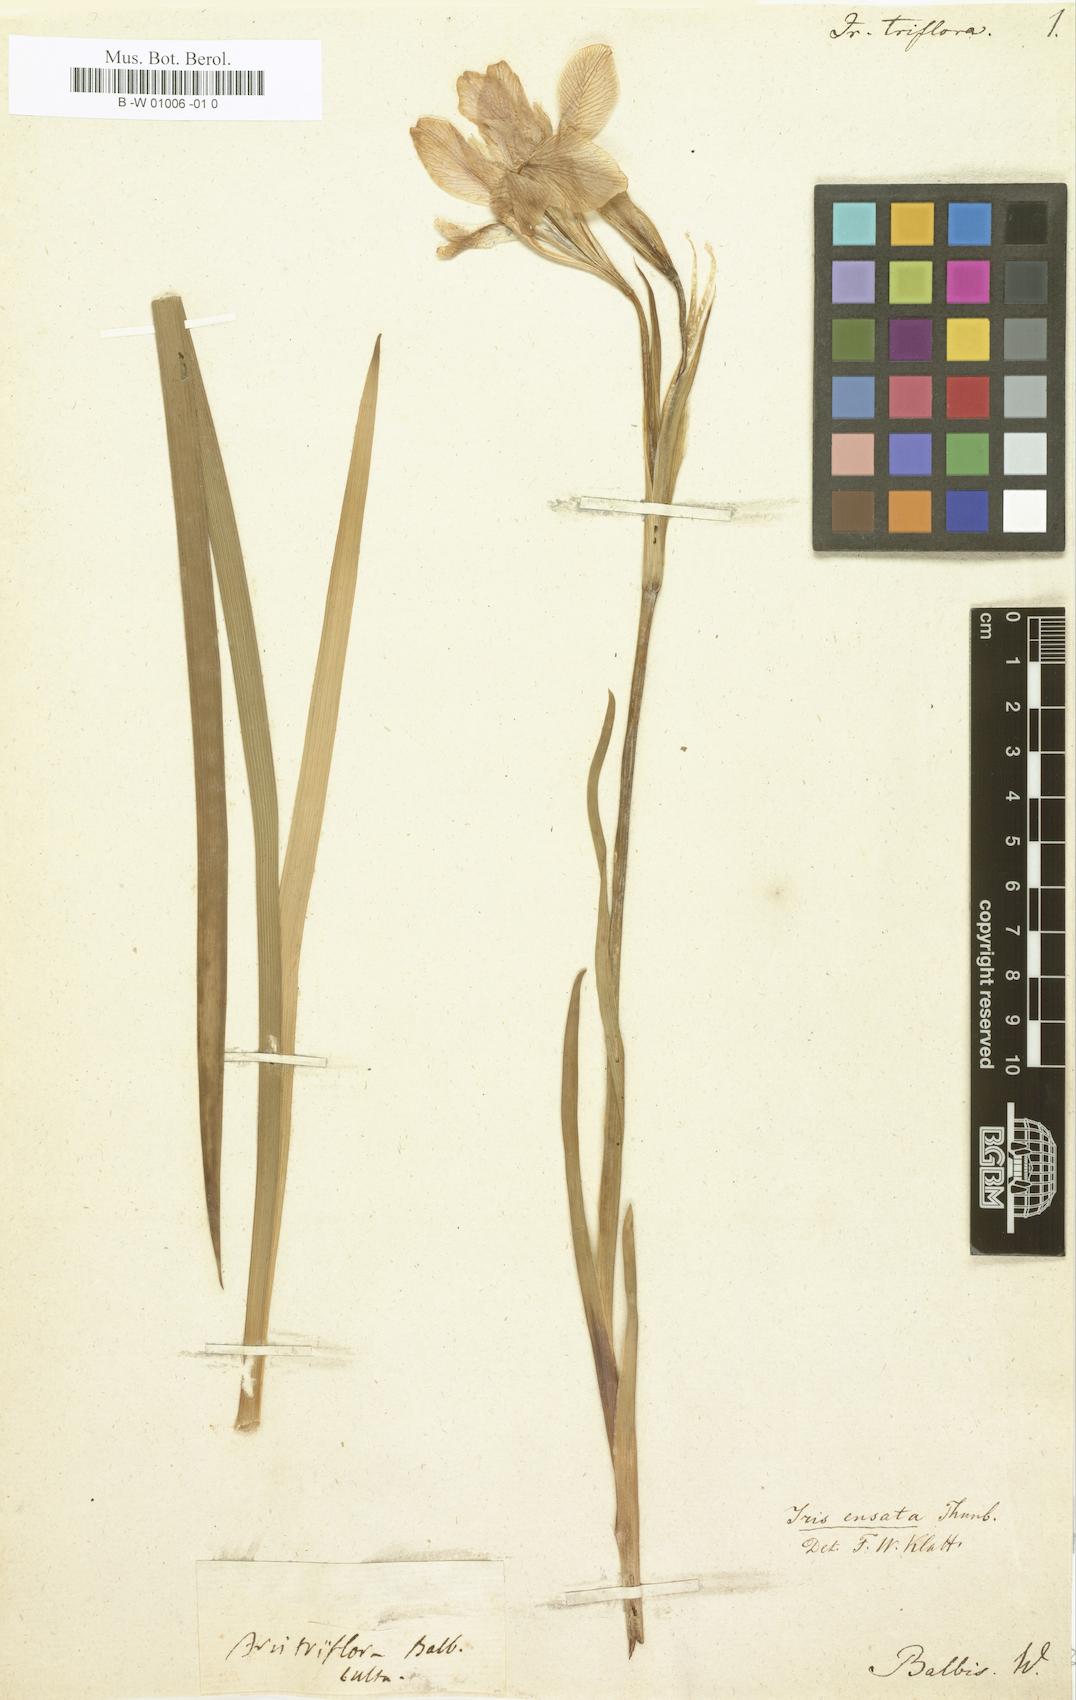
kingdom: Plantae
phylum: Tracheophyta
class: Liliopsida
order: Asparagales
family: Iridaceae
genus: Iris
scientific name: Iris lactea
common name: White-flower chinese iris
